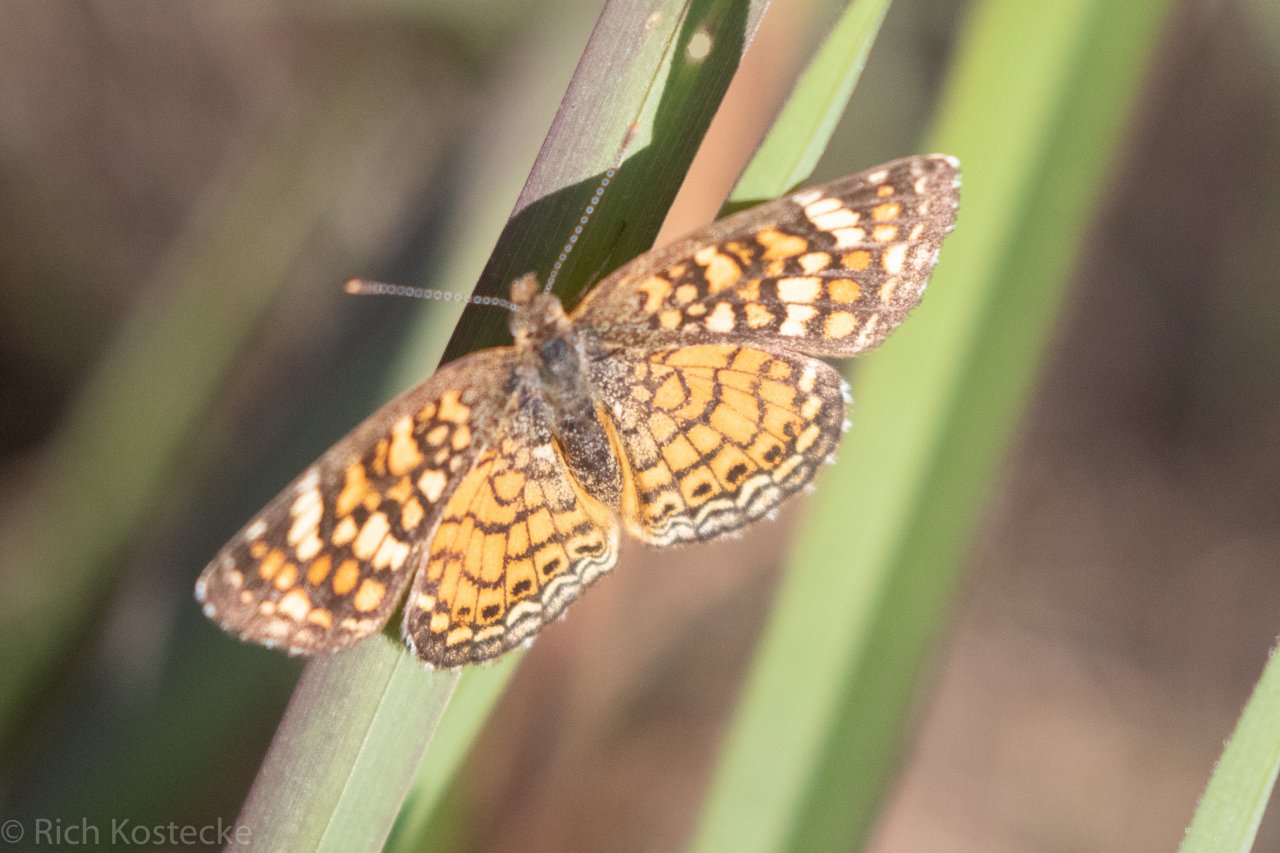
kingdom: Animalia
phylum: Arthropoda
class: Insecta
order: Lepidoptera
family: Nymphalidae
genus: Phyciodes
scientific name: Phyciodes vesta
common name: Vesta Crescent
